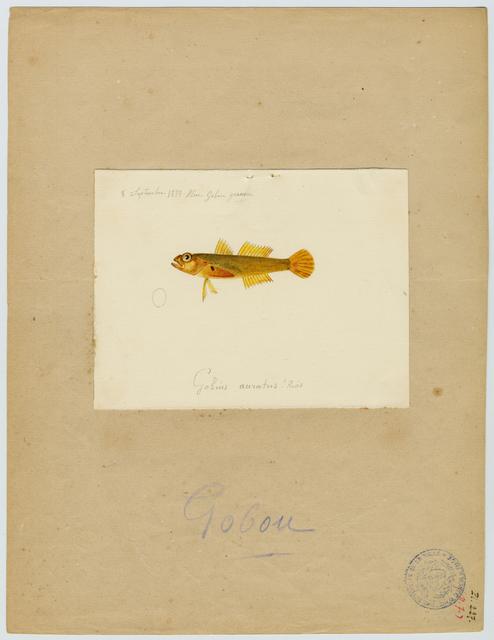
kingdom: Animalia
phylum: Chordata
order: Perciformes
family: Gobiidae
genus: Gobius
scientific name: Gobius auratus
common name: Golden goby
